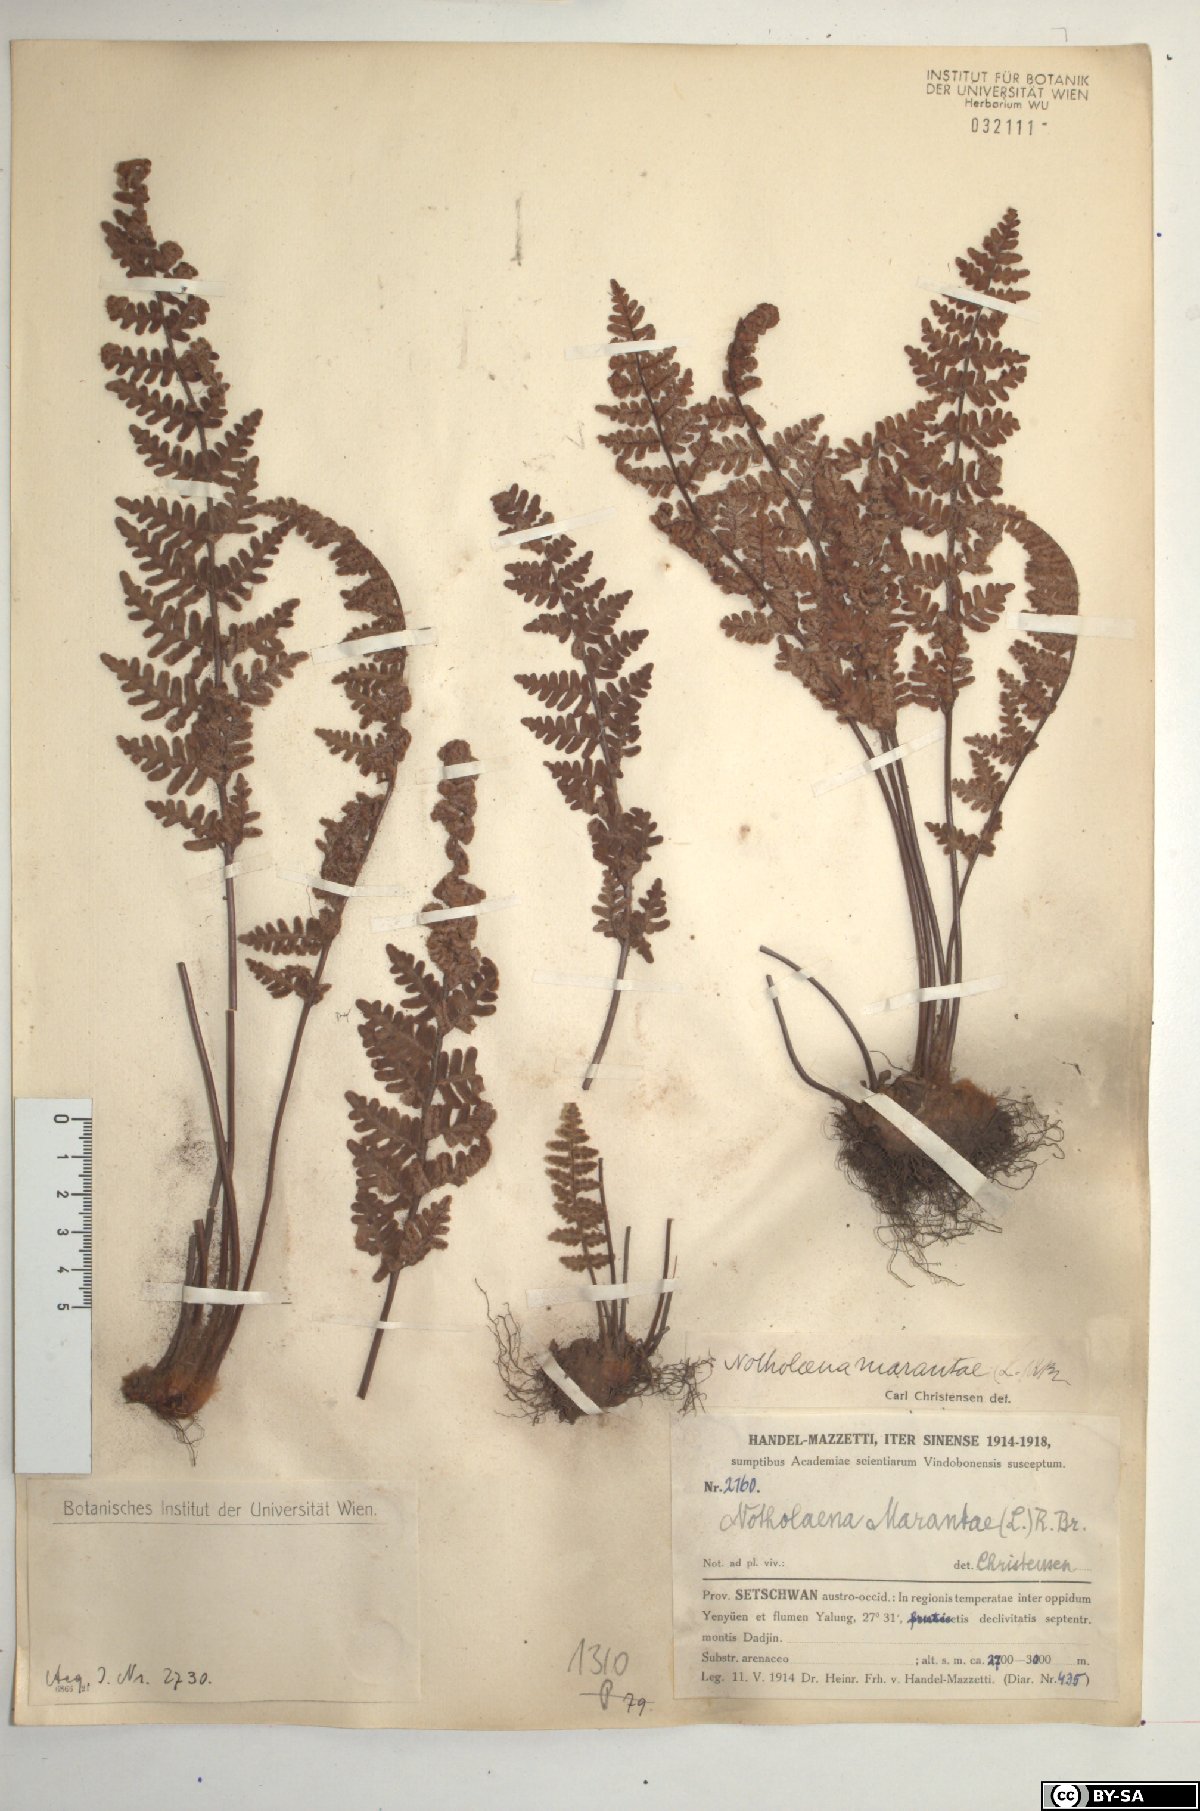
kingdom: Plantae
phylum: Tracheophyta
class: Polypodiopsida
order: Polypodiales
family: Pteridaceae
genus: Paragymnopteris
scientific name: Paragymnopteris marantae
